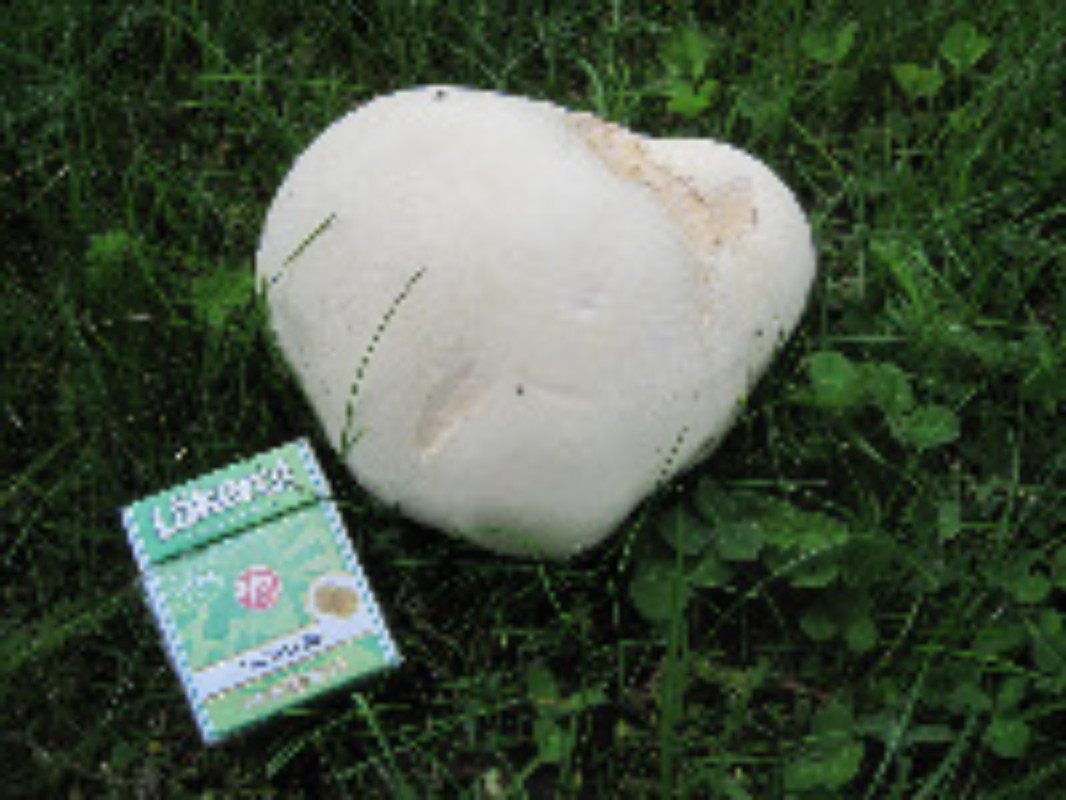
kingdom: Fungi
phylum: Basidiomycota
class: Agaricomycetes
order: Agaricales
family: Lycoperdaceae
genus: Calvatia
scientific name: Calvatia gigantea
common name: kæmpestøvbold
